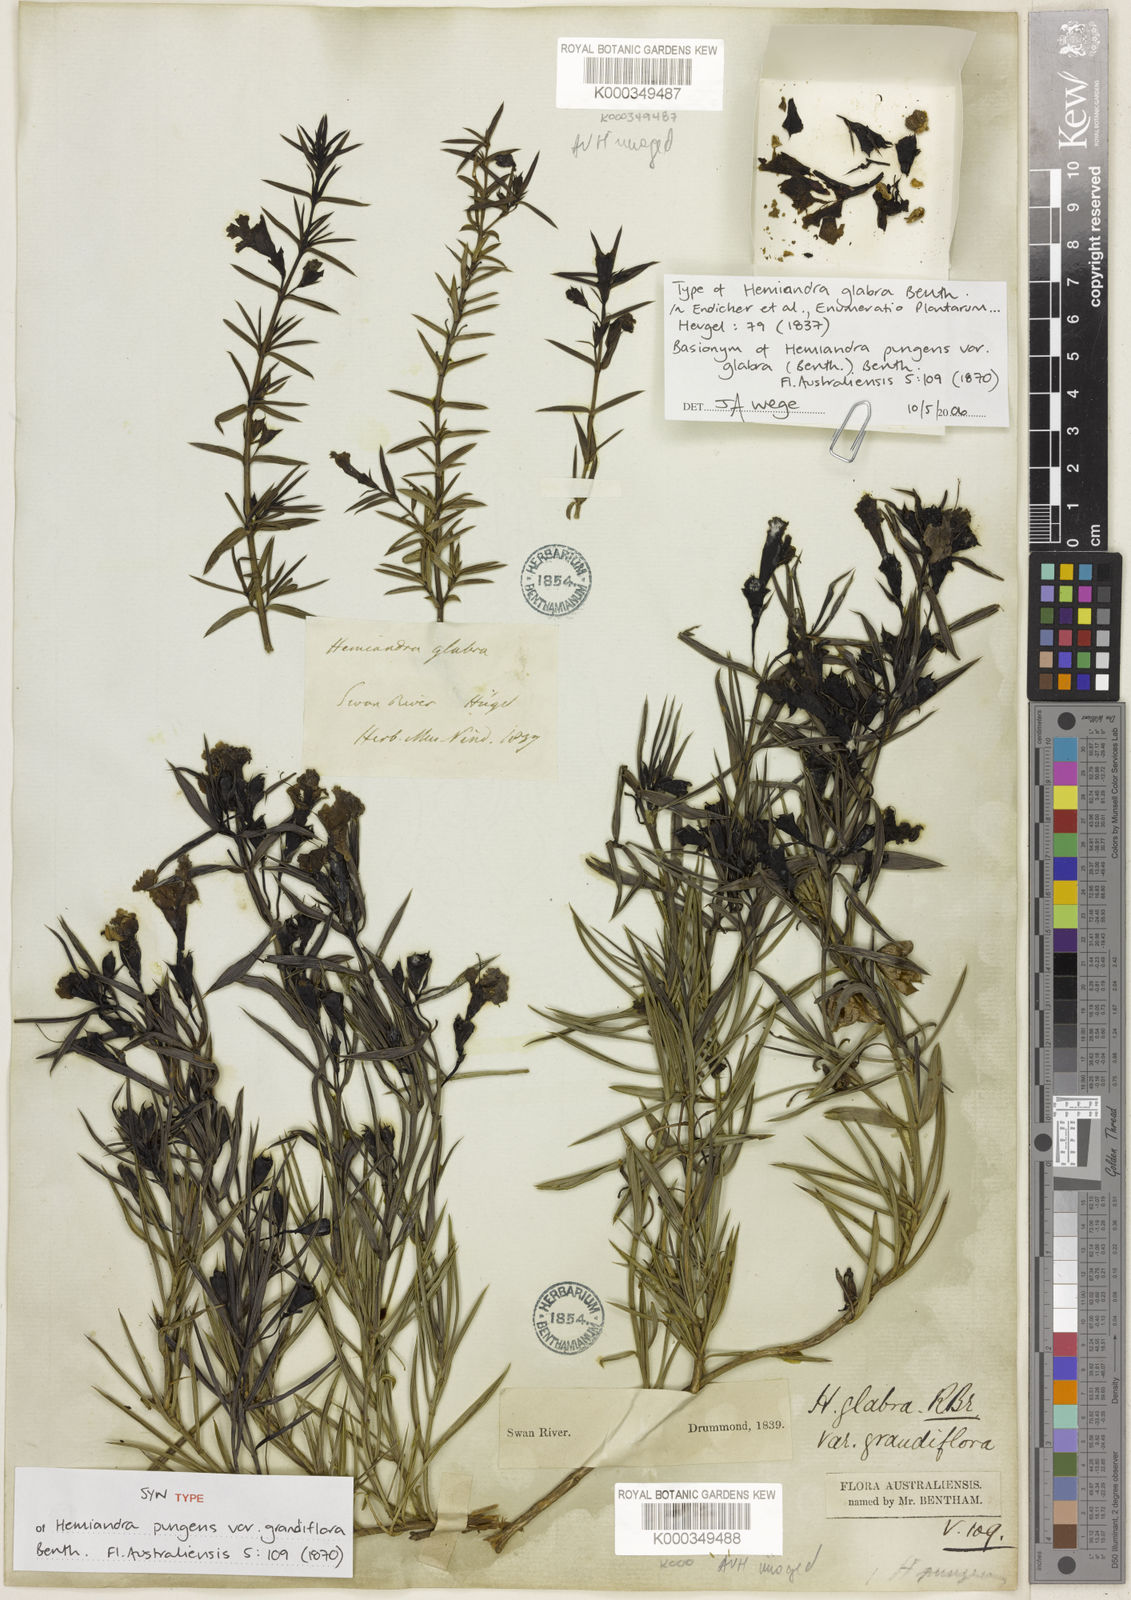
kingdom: Plantae
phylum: Tracheophyta
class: Magnoliopsida
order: Lamiales
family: Lamiaceae
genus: Hemiandra
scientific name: Hemiandra pungens
